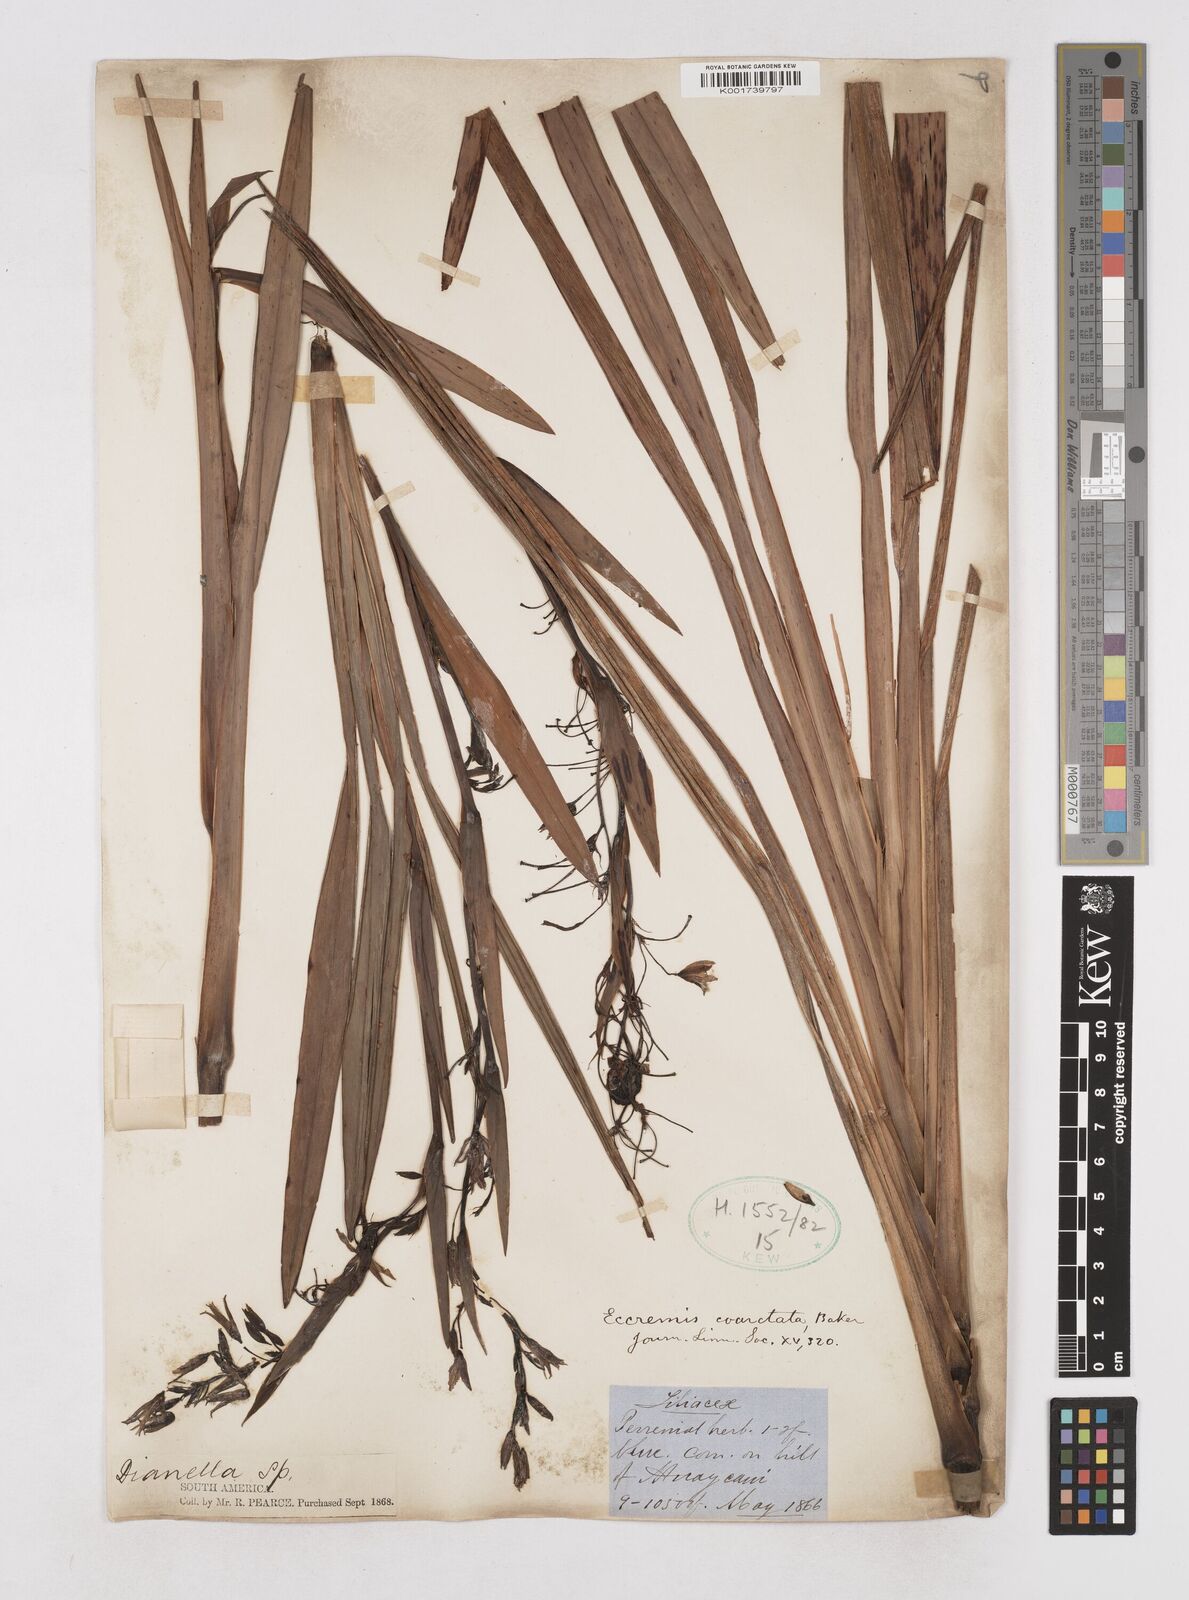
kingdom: Plantae
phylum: Tracheophyta
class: Liliopsida
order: Asparagales
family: Asphodelaceae
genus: Excremis
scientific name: Excremis coarctata
